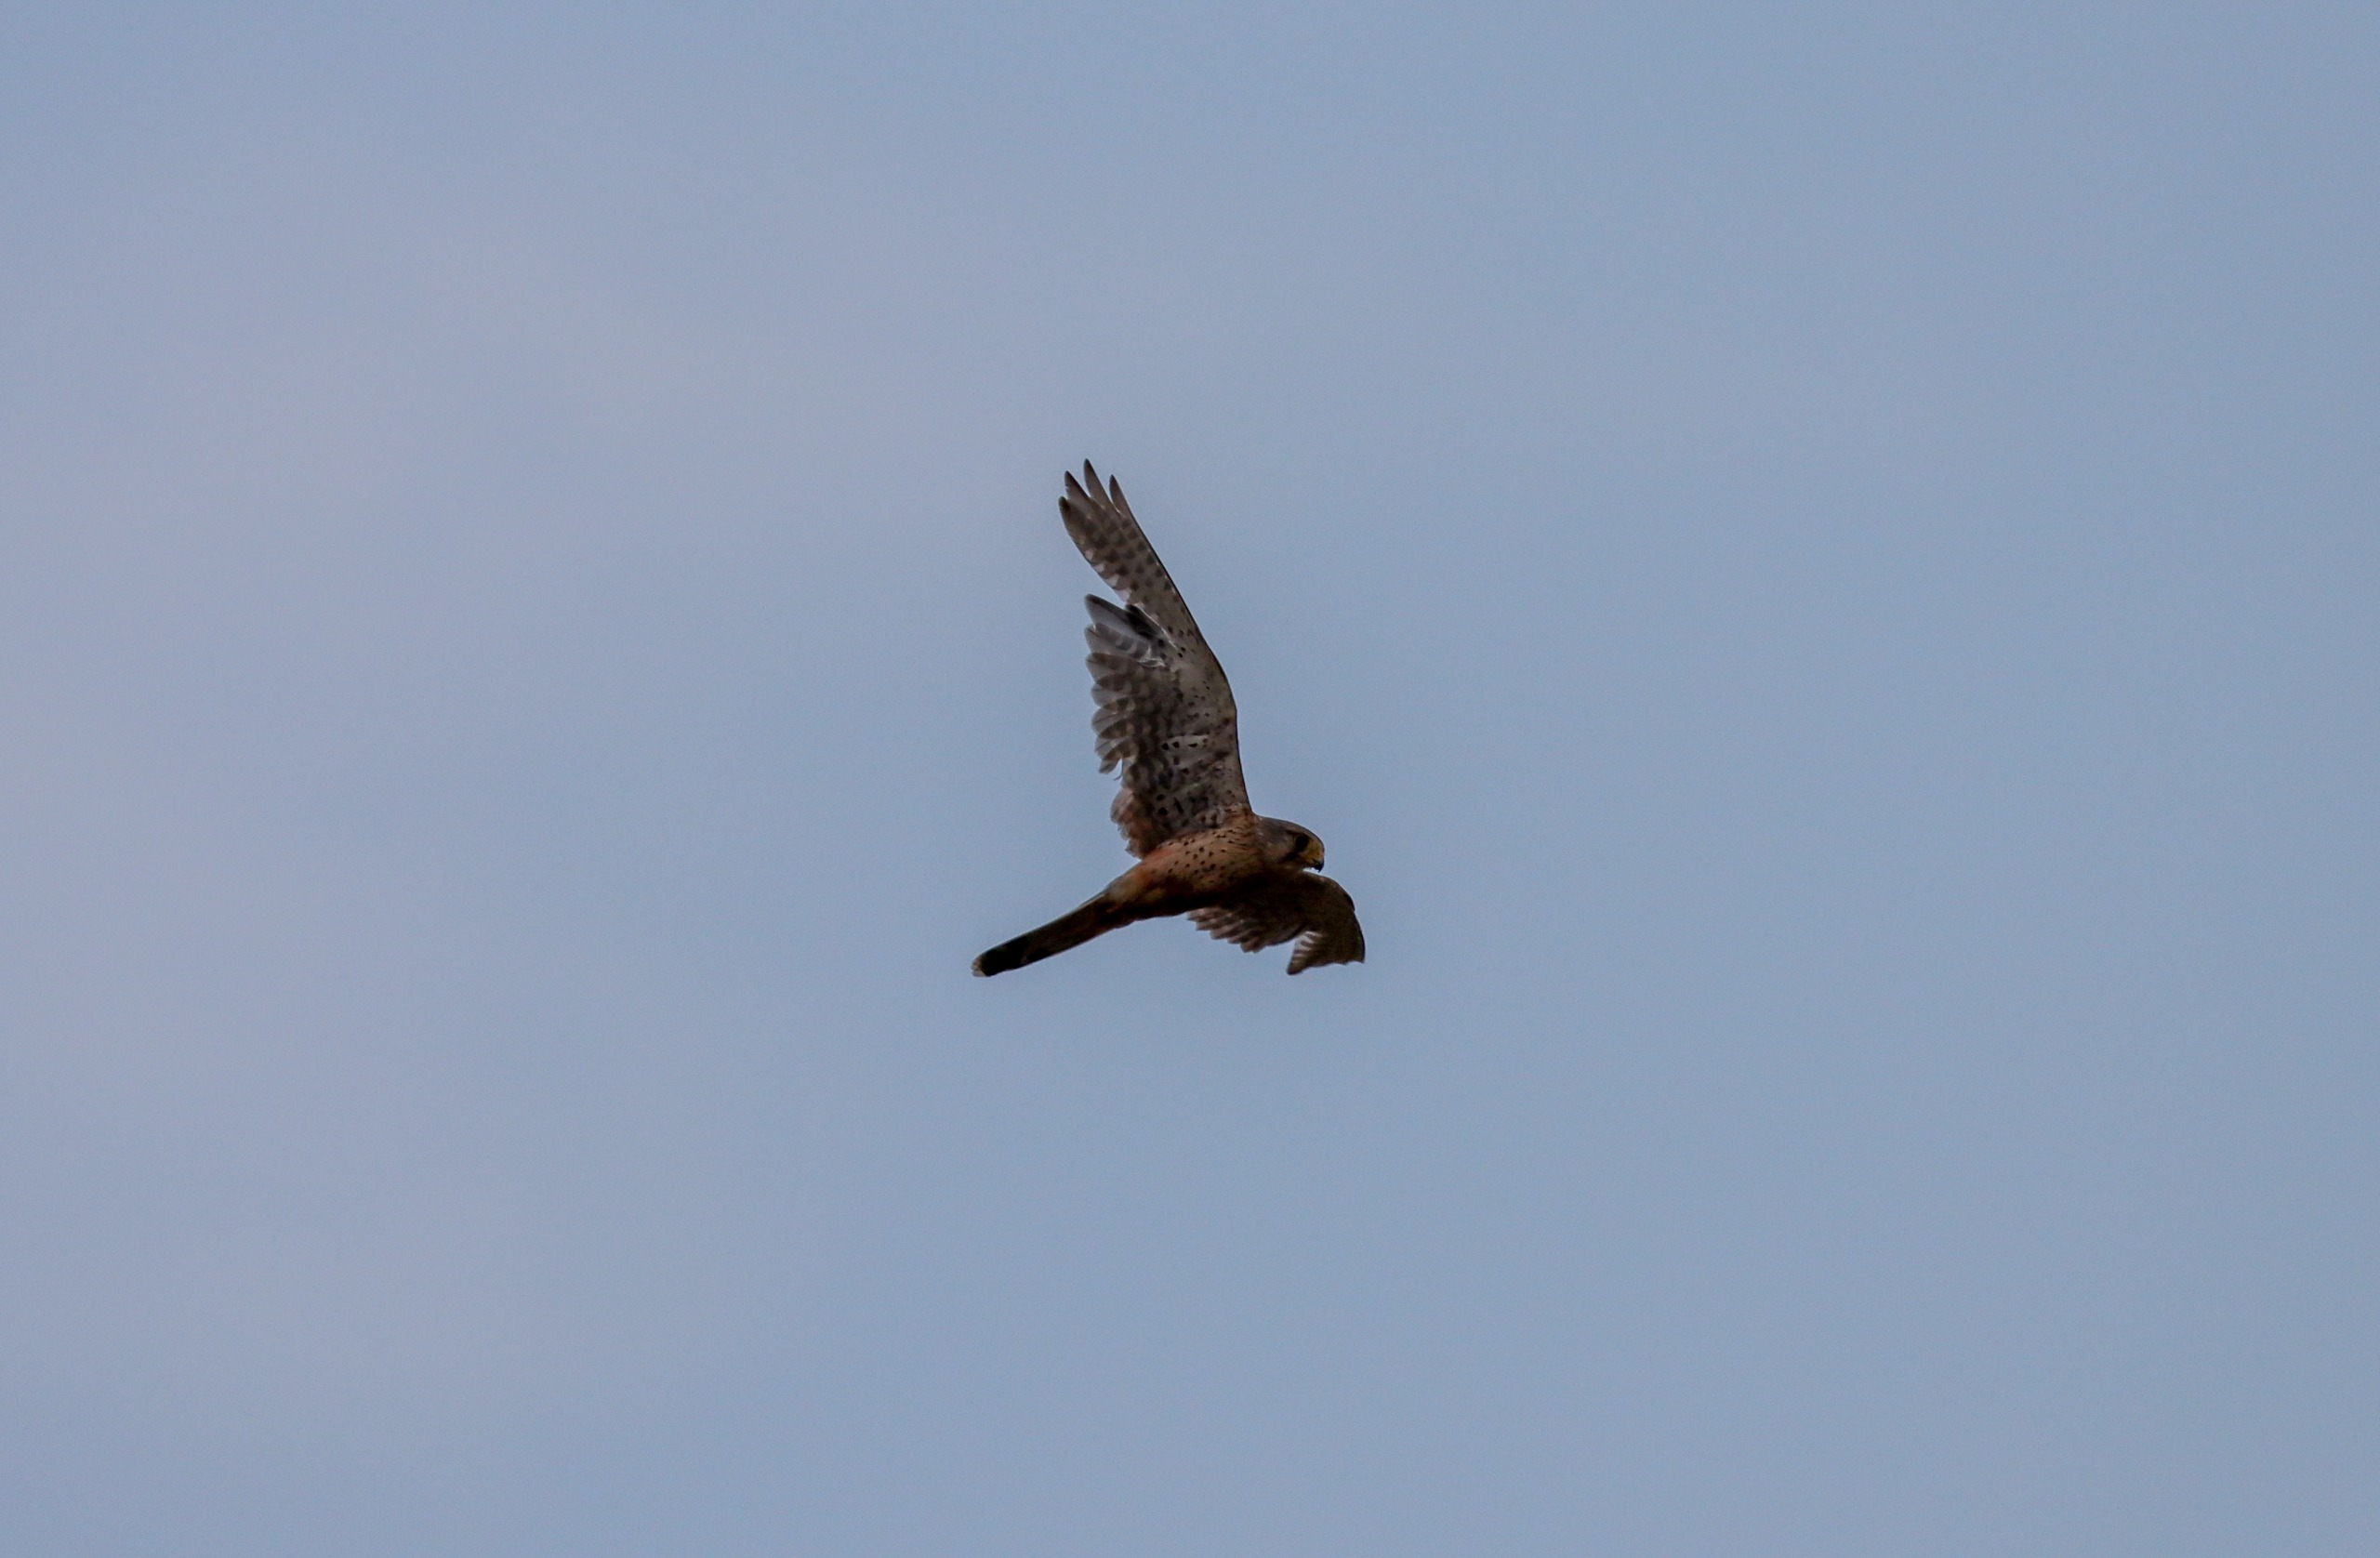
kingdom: Animalia
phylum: Chordata
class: Aves
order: Falconiformes
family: Falconidae
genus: Falco
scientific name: Falco tinnunculus
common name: Tårnfalk
